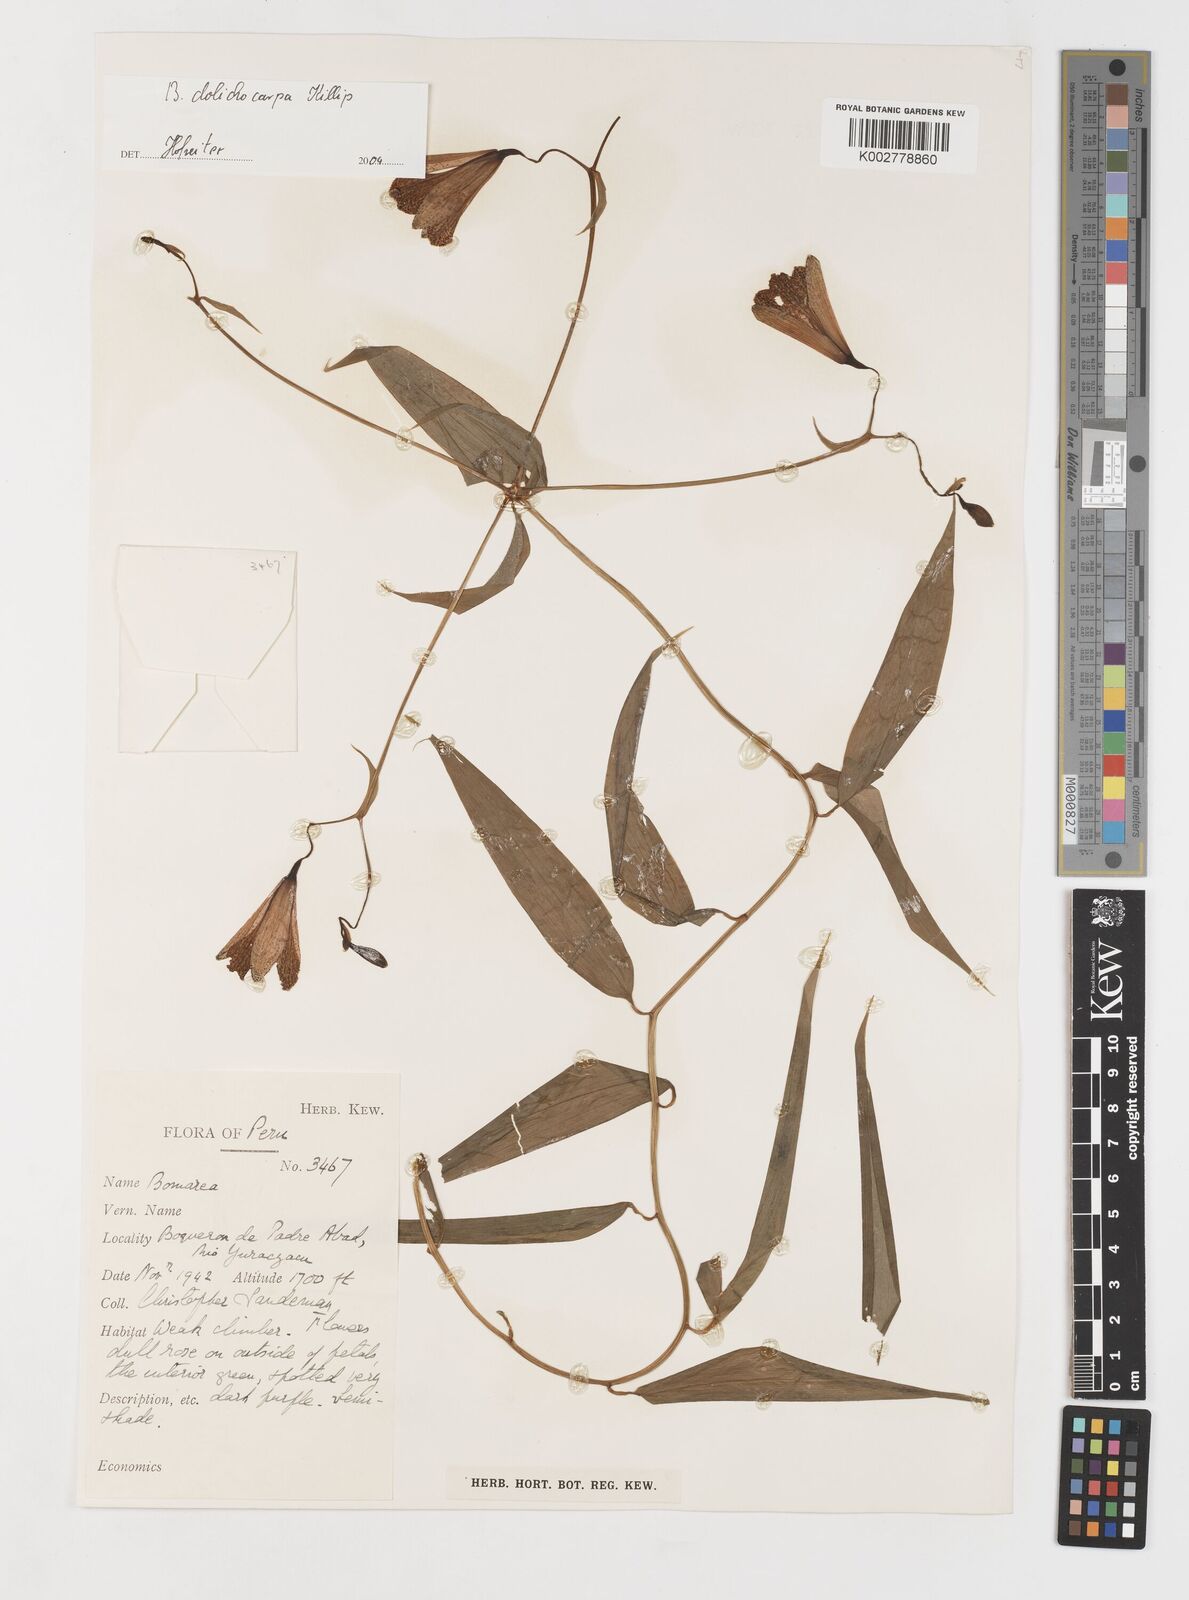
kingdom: Plantae
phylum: Tracheophyta
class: Liliopsida
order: Liliales
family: Alstroemeriaceae
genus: Bomarea
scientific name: Bomarea dolichocarpa
